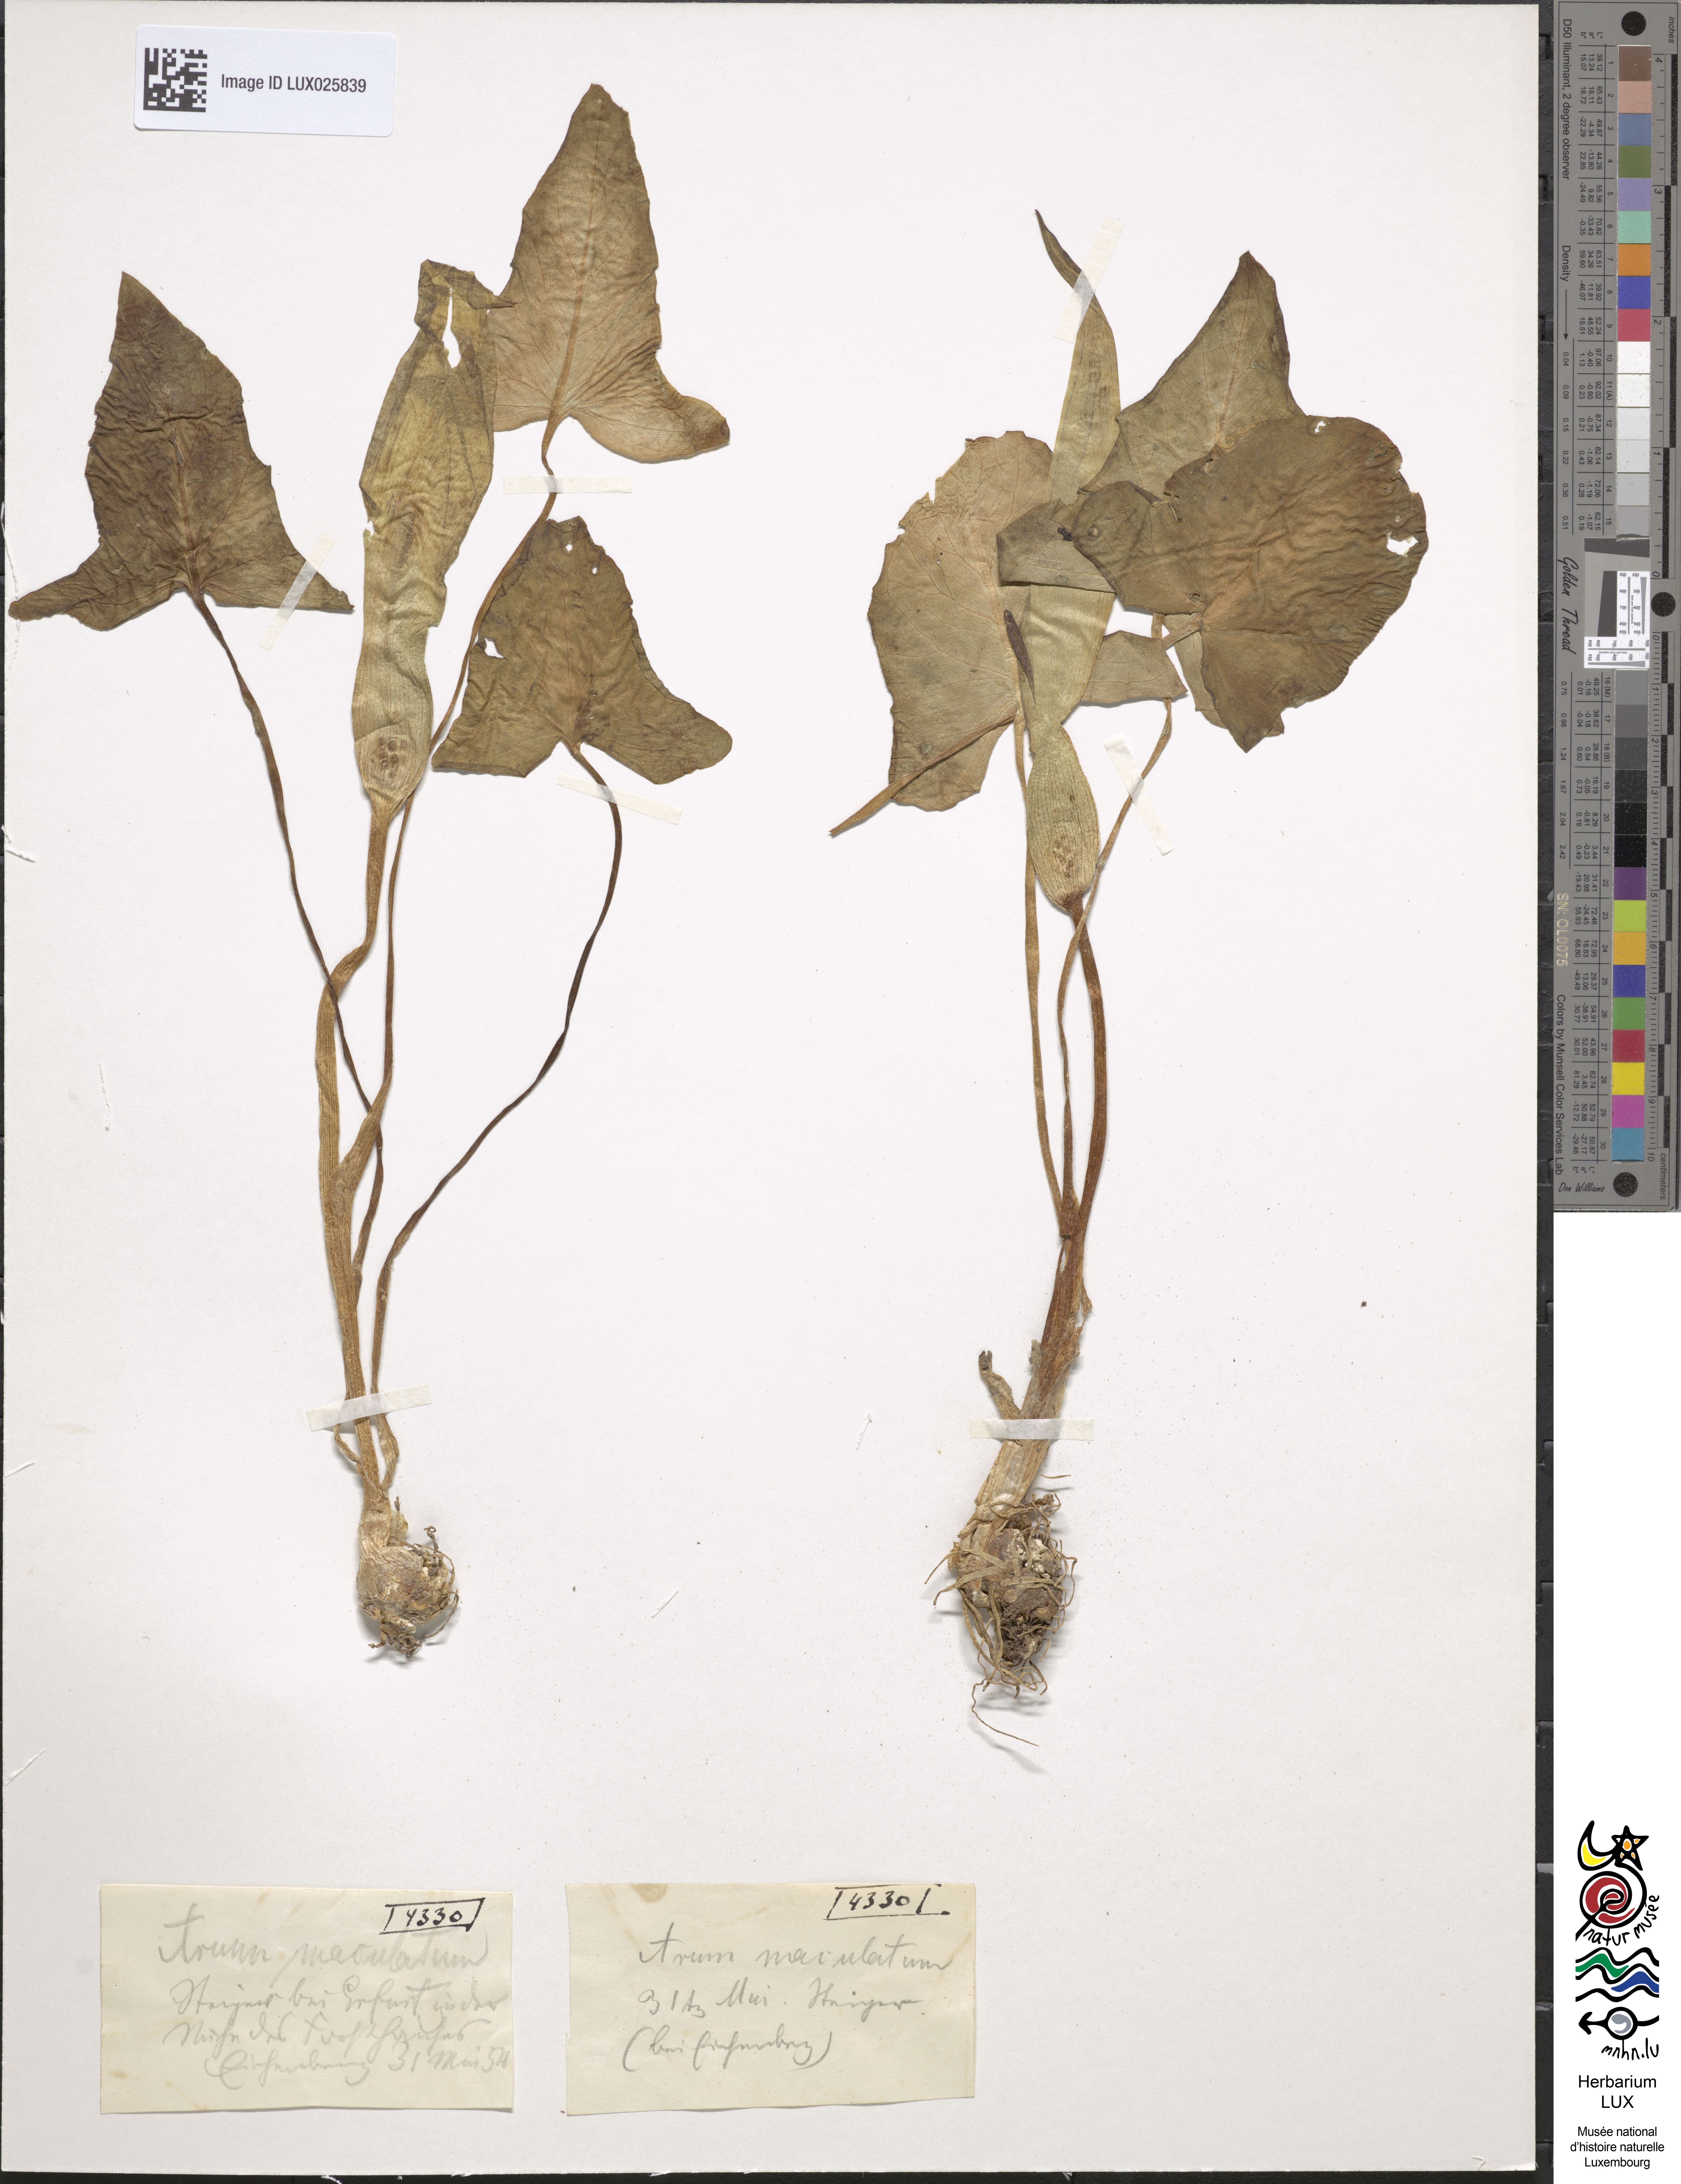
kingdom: Plantae
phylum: Tracheophyta
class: Liliopsida
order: Alismatales
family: Araceae
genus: Arum
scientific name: Arum maculatum
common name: Lords-and-ladies
